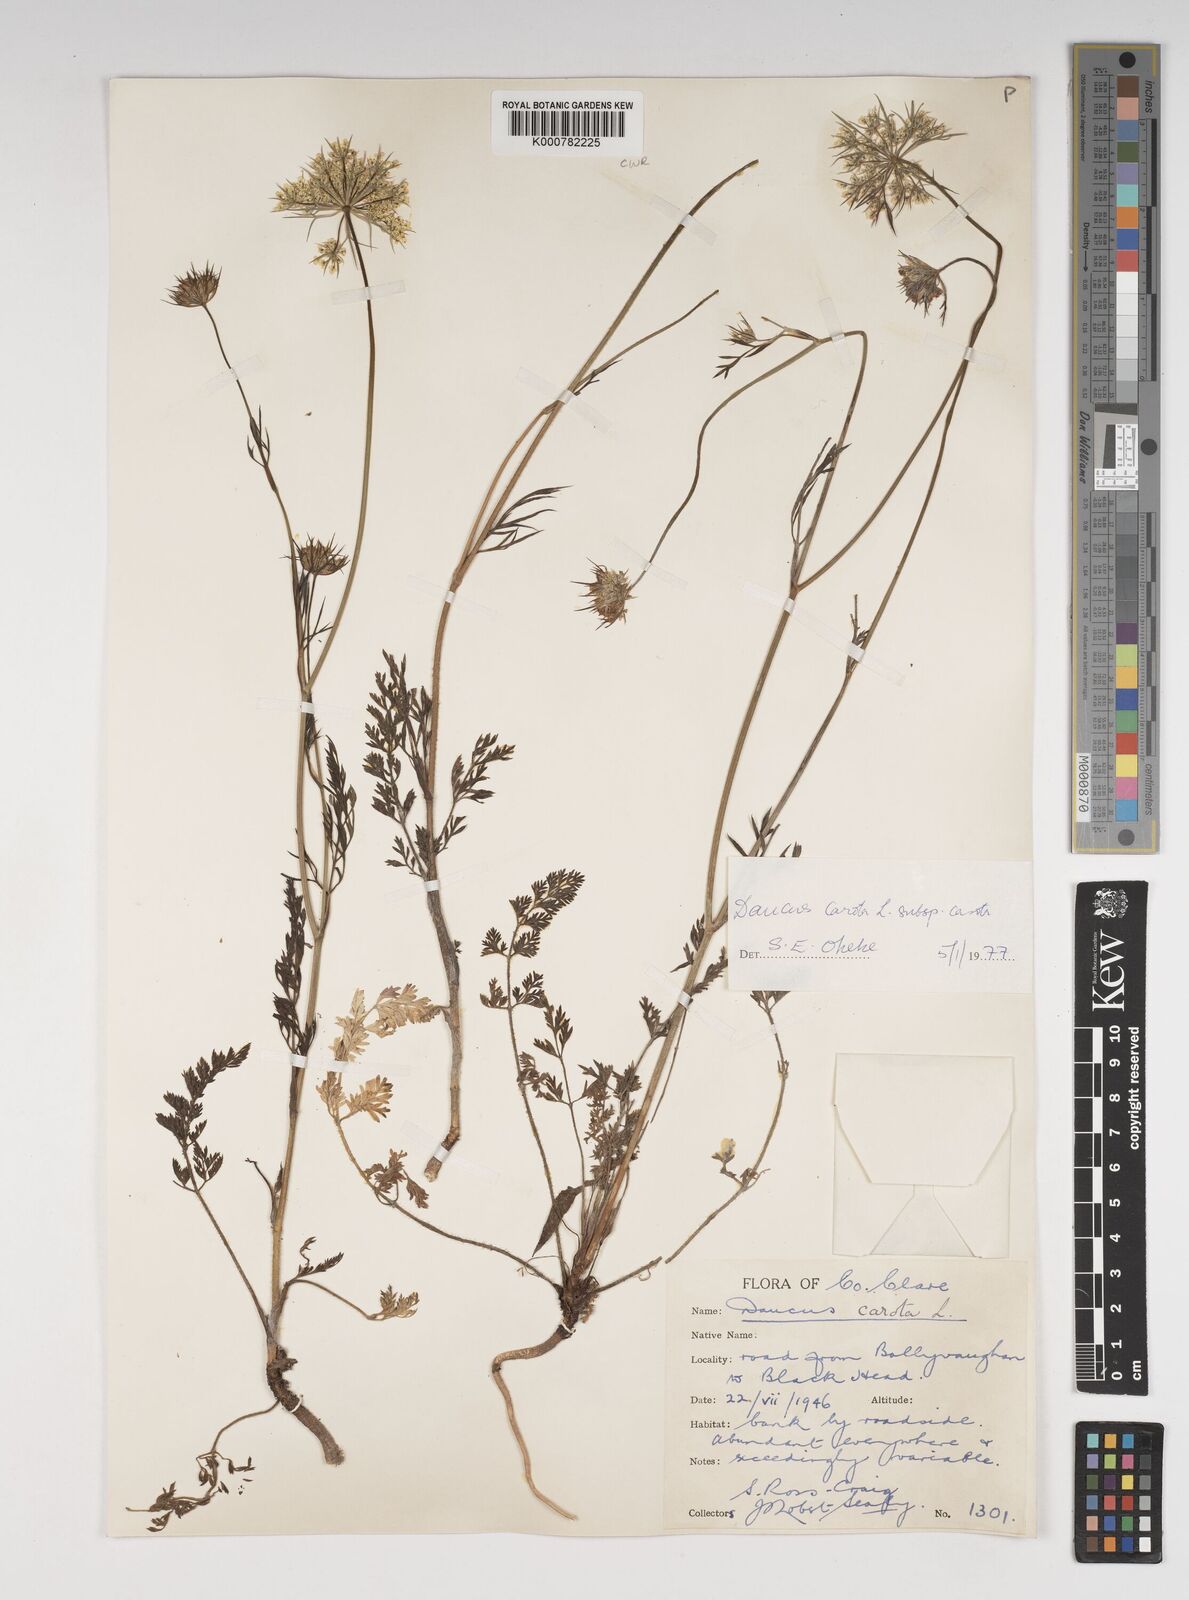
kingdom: Plantae
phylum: Tracheophyta
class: Magnoliopsida
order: Apiales
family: Apiaceae
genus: Daucus
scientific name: Daucus carota
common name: Wild carrot
